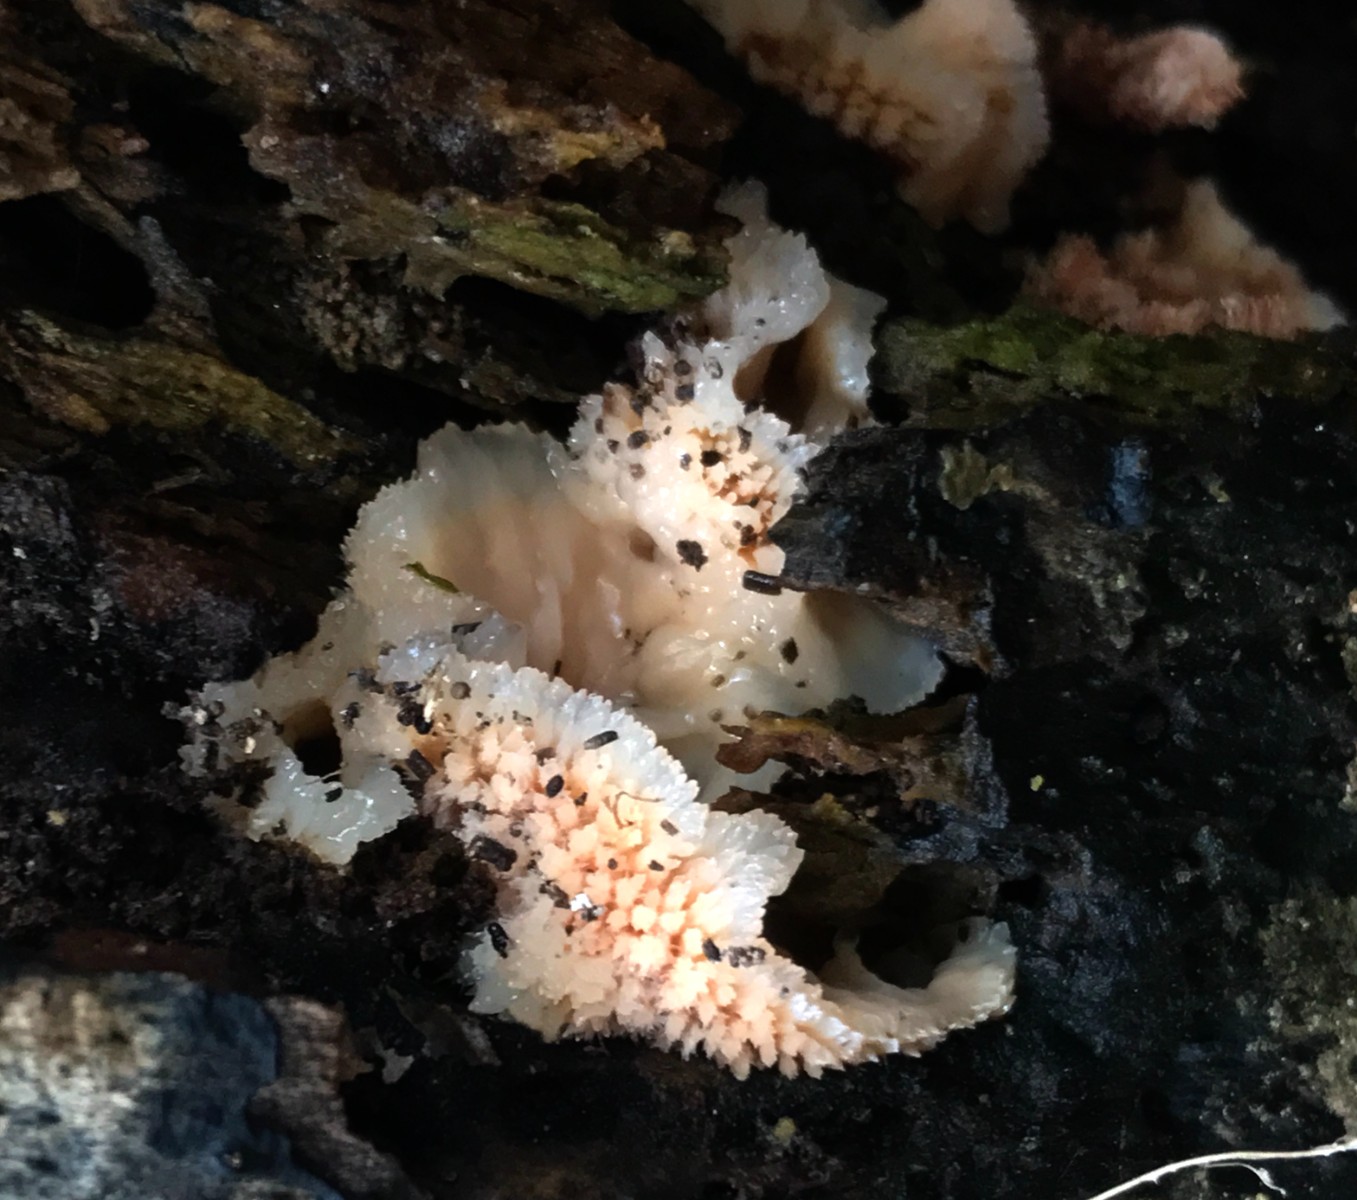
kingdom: Fungi
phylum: Basidiomycota
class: Agaricomycetes
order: Polyporales
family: Meruliaceae
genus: Phlebia
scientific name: Phlebia tremellosa
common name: bævrende åresvamp
